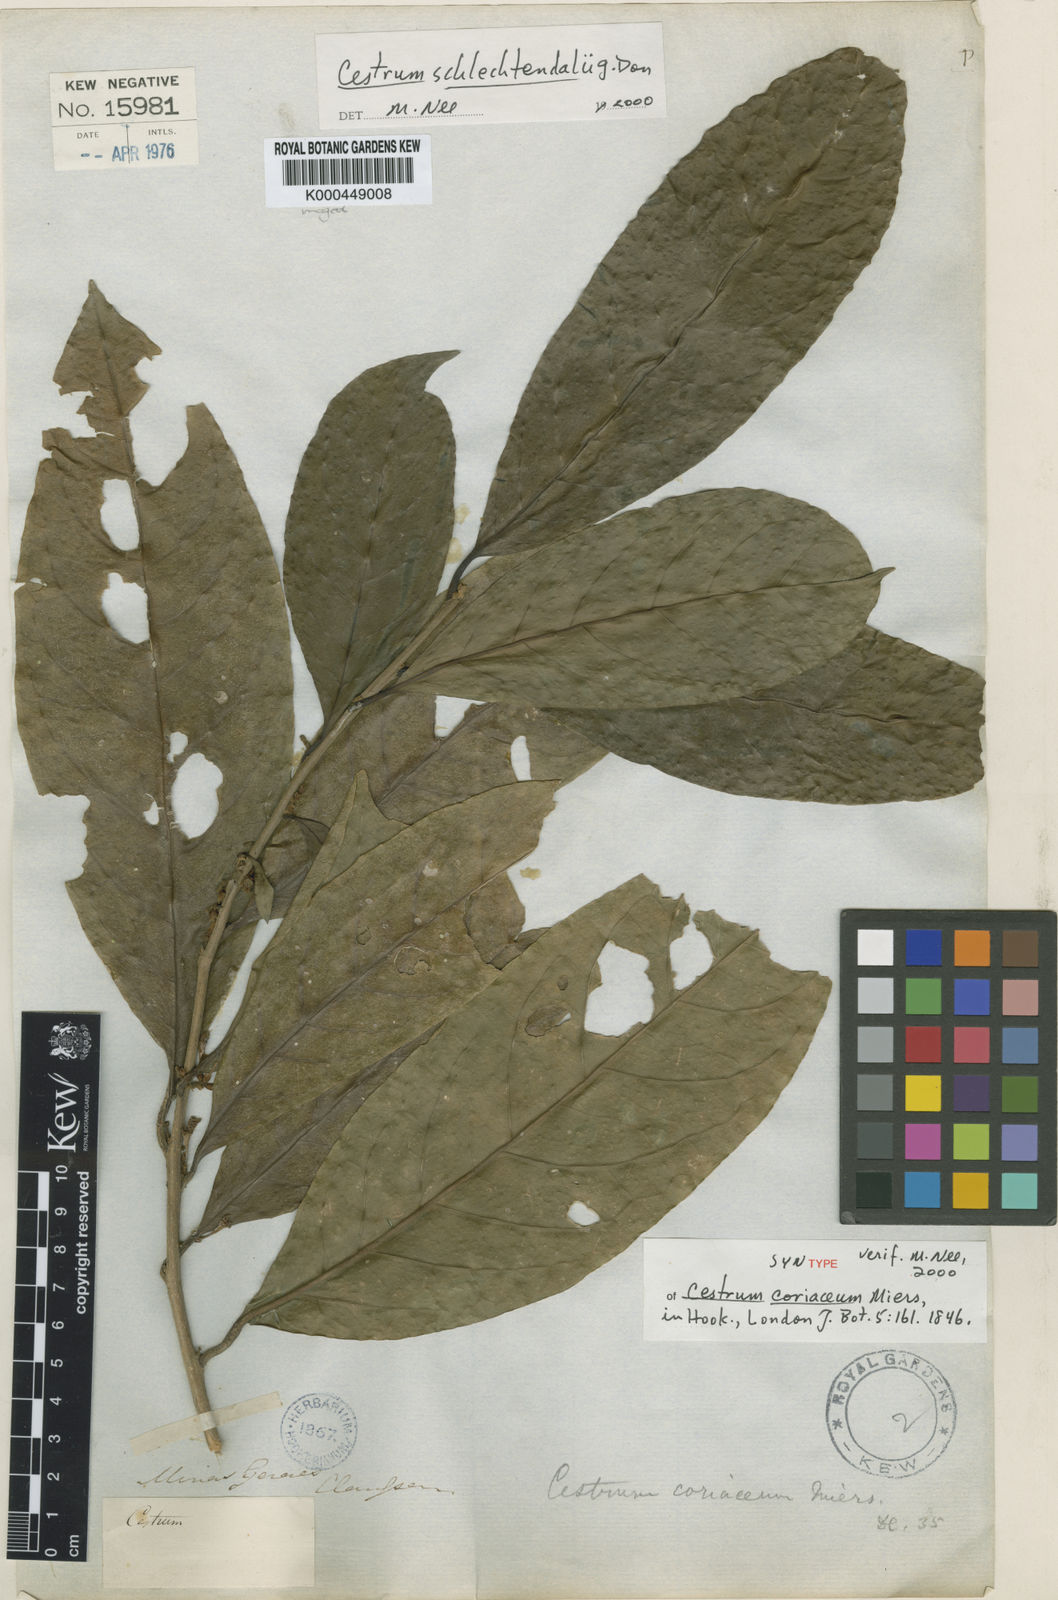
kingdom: Plantae
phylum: Tracheophyta
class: Magnoliopsida
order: Solanales
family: Solanaceae
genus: Cestrum
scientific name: Cestrum coriaceum
